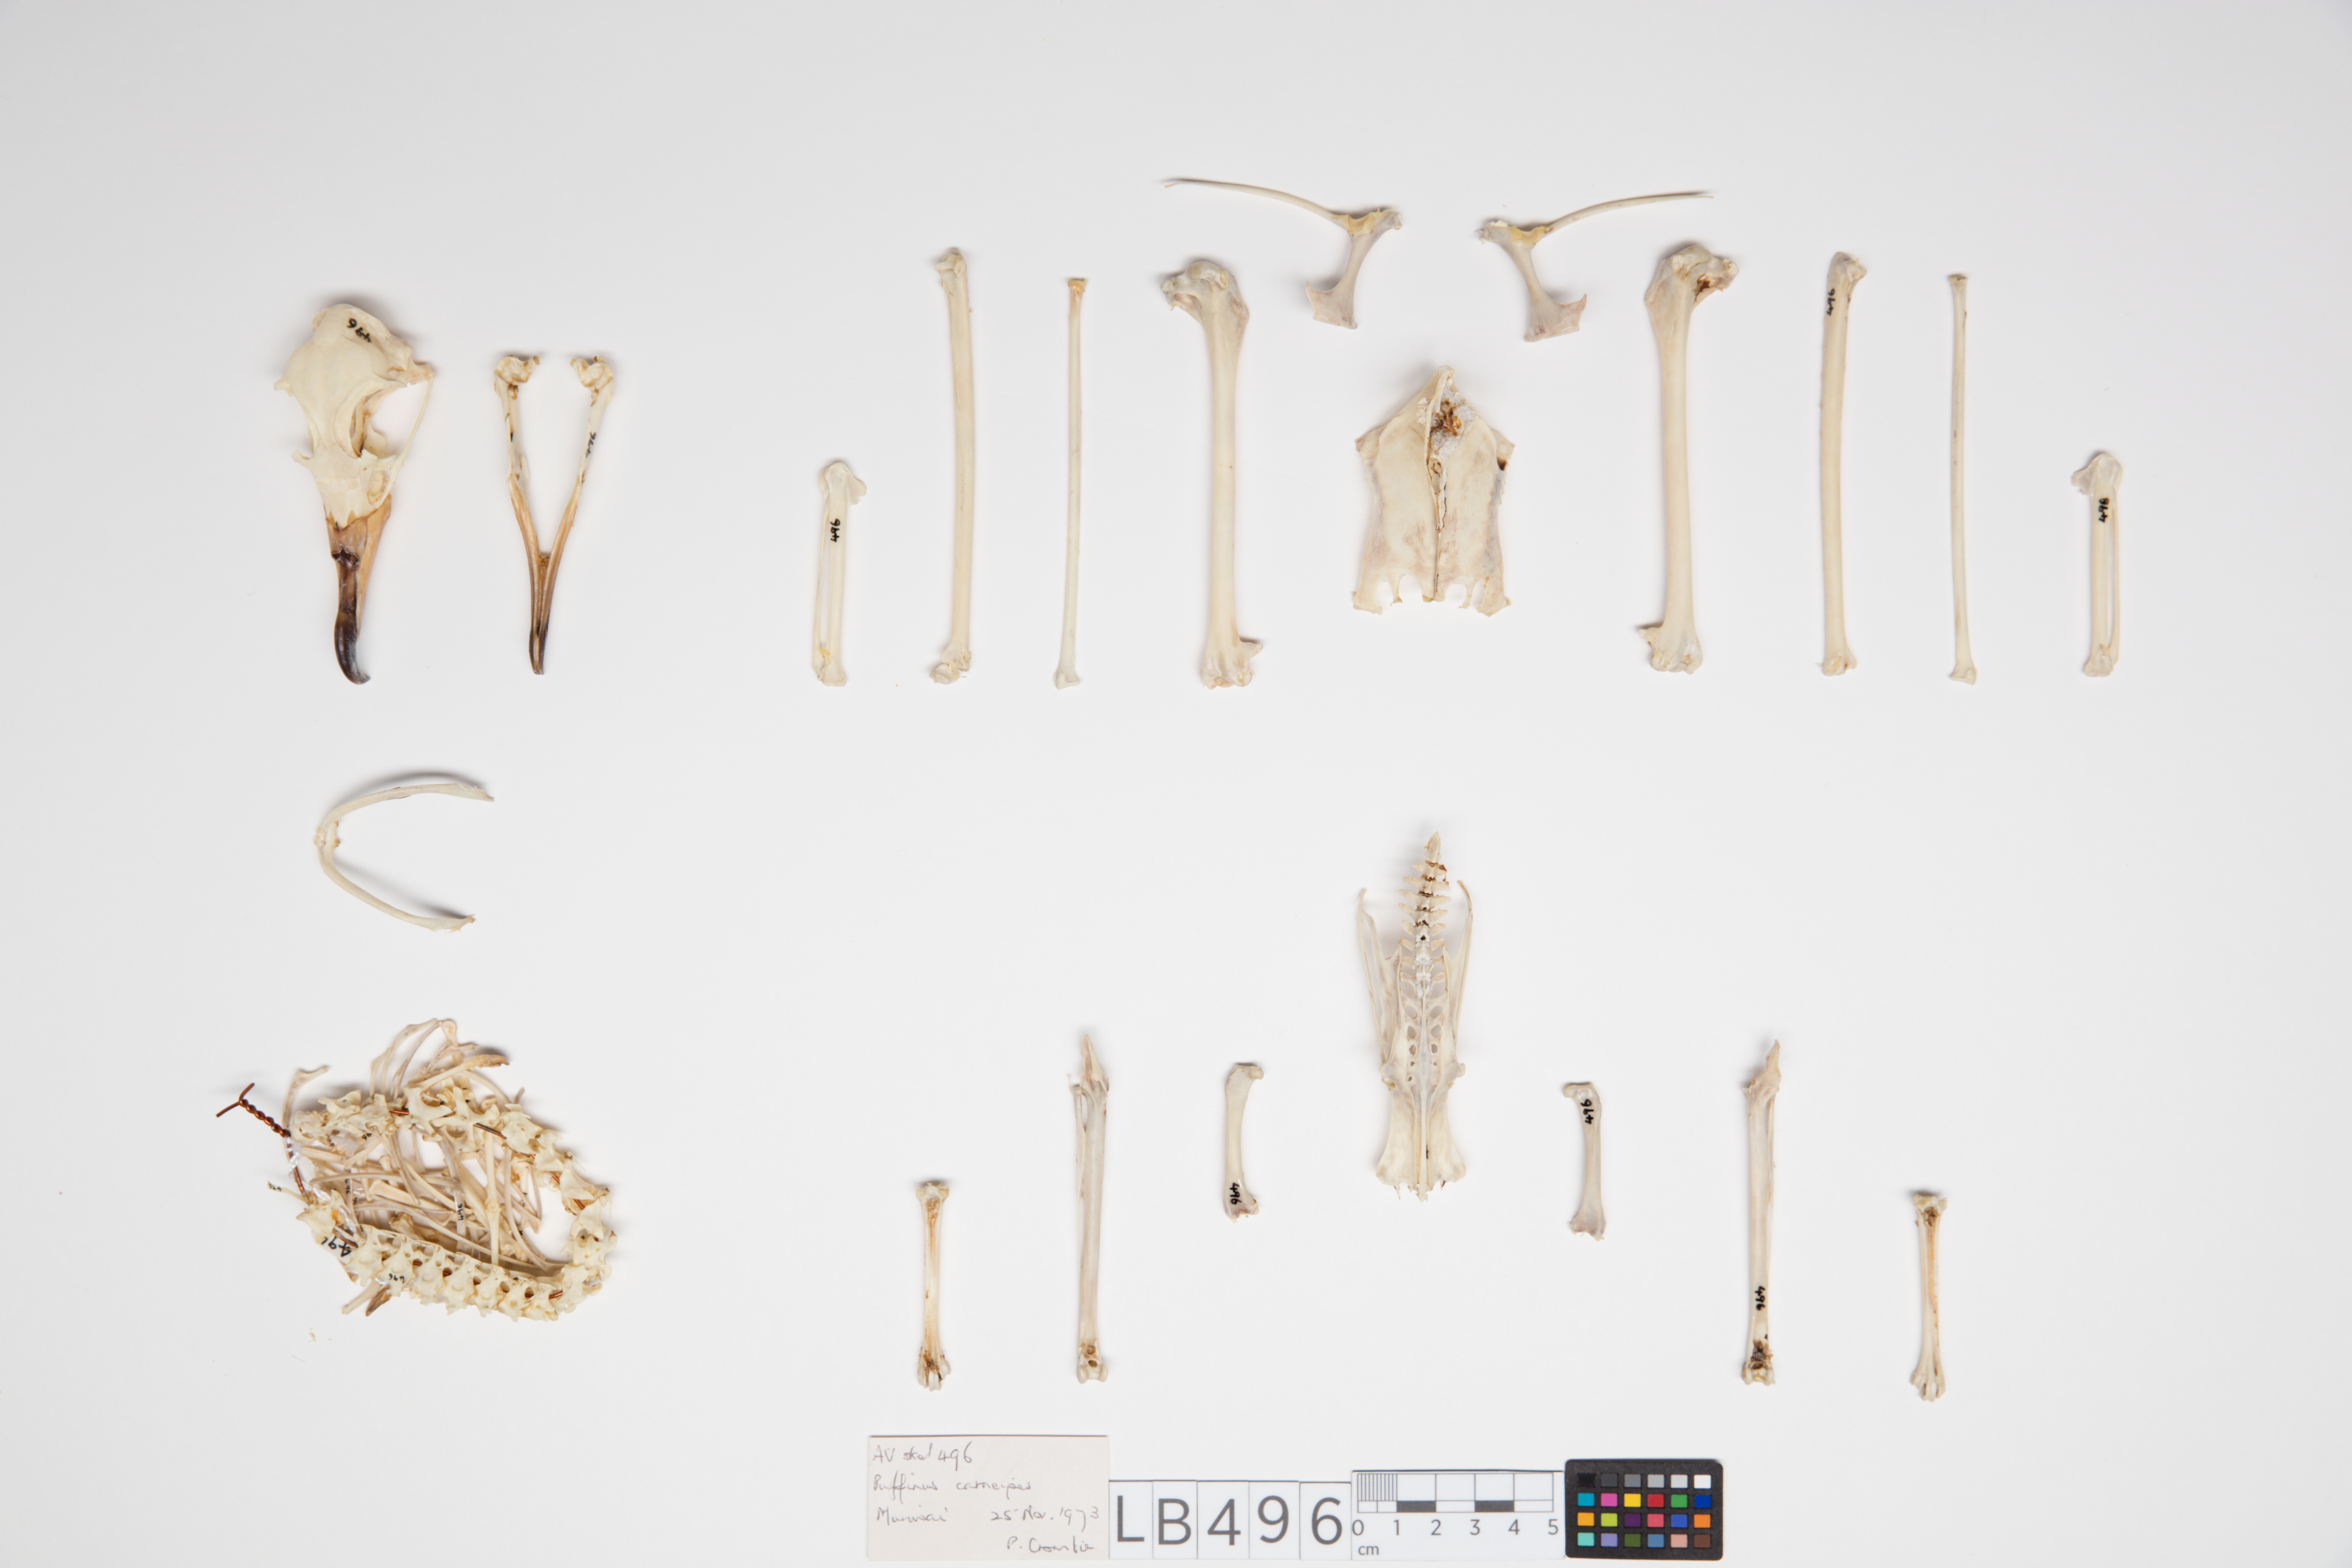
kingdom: Animalia
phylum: Chordata
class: Aves
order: Procellariiformes
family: Procellariidae
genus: Puffinus
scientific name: Puffinus carneipes
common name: Flesh-footed shearwater
